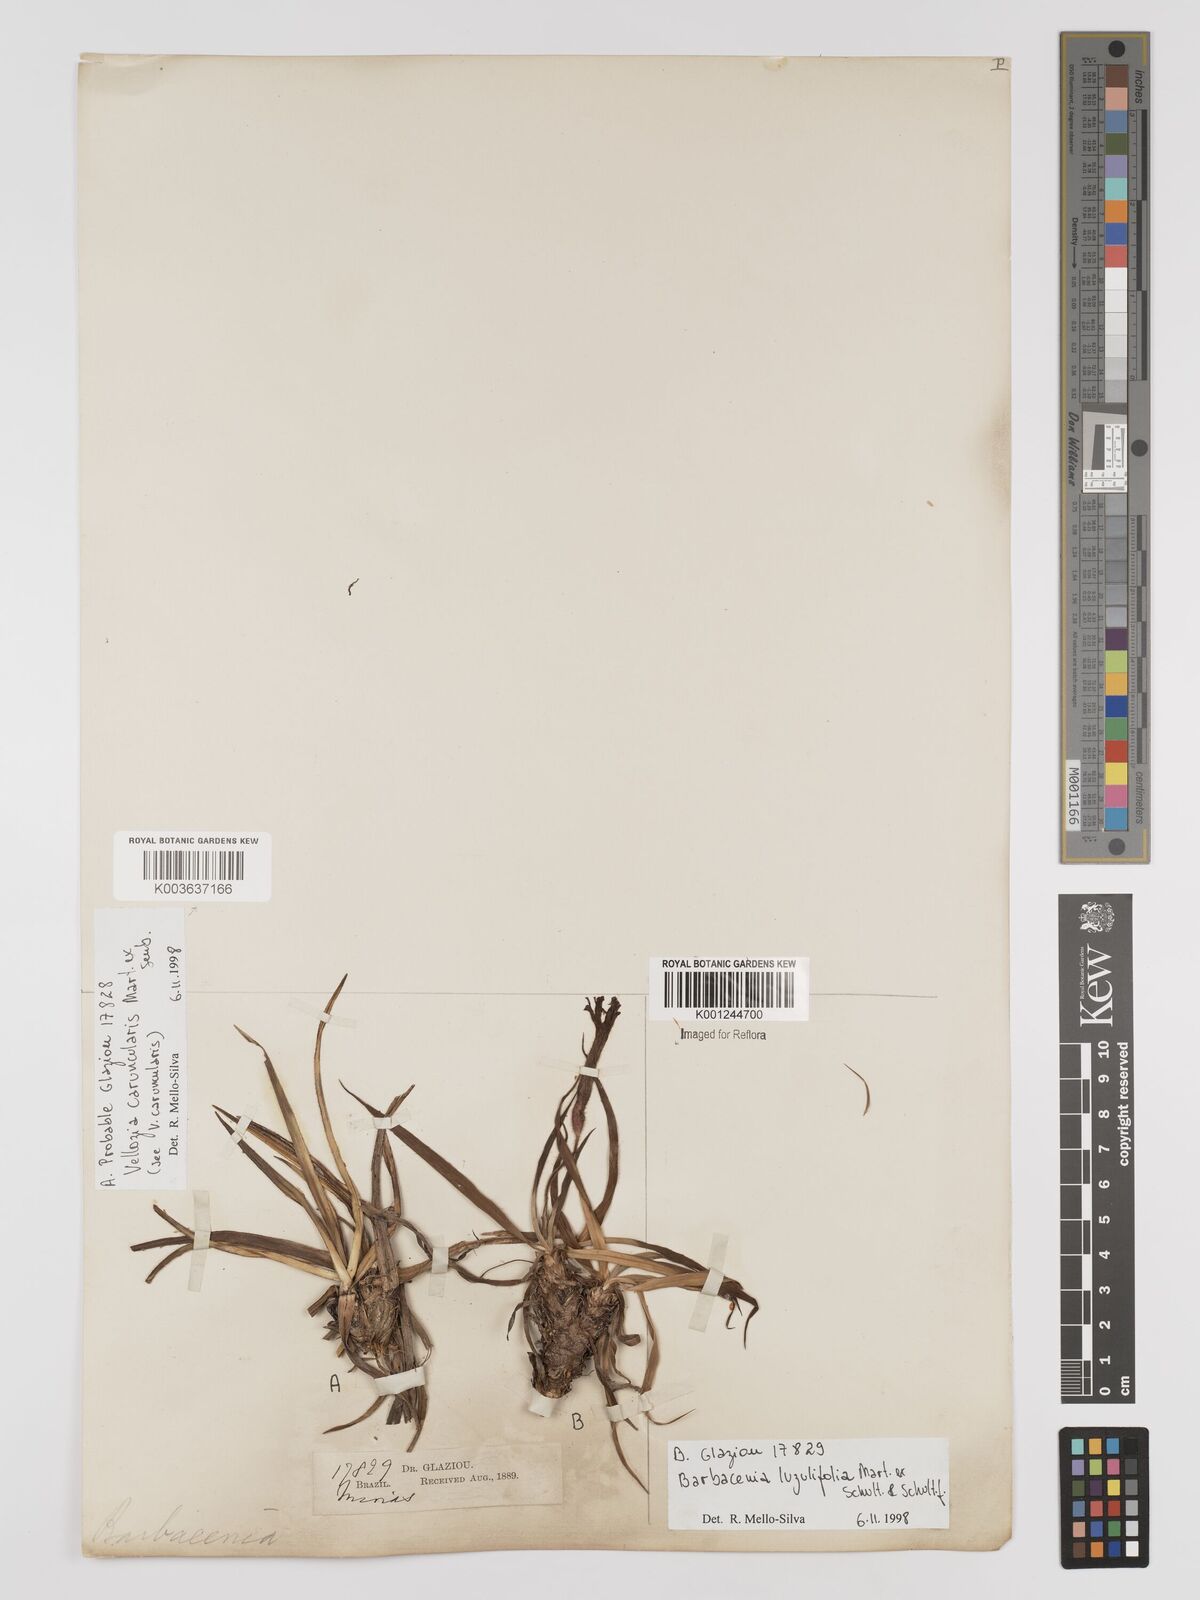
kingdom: Plantae
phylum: Tracheophyta
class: Liliopsida
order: Pandanales
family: Velloziaceae
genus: Barbacenia
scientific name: Barbacenia luzulifolia
